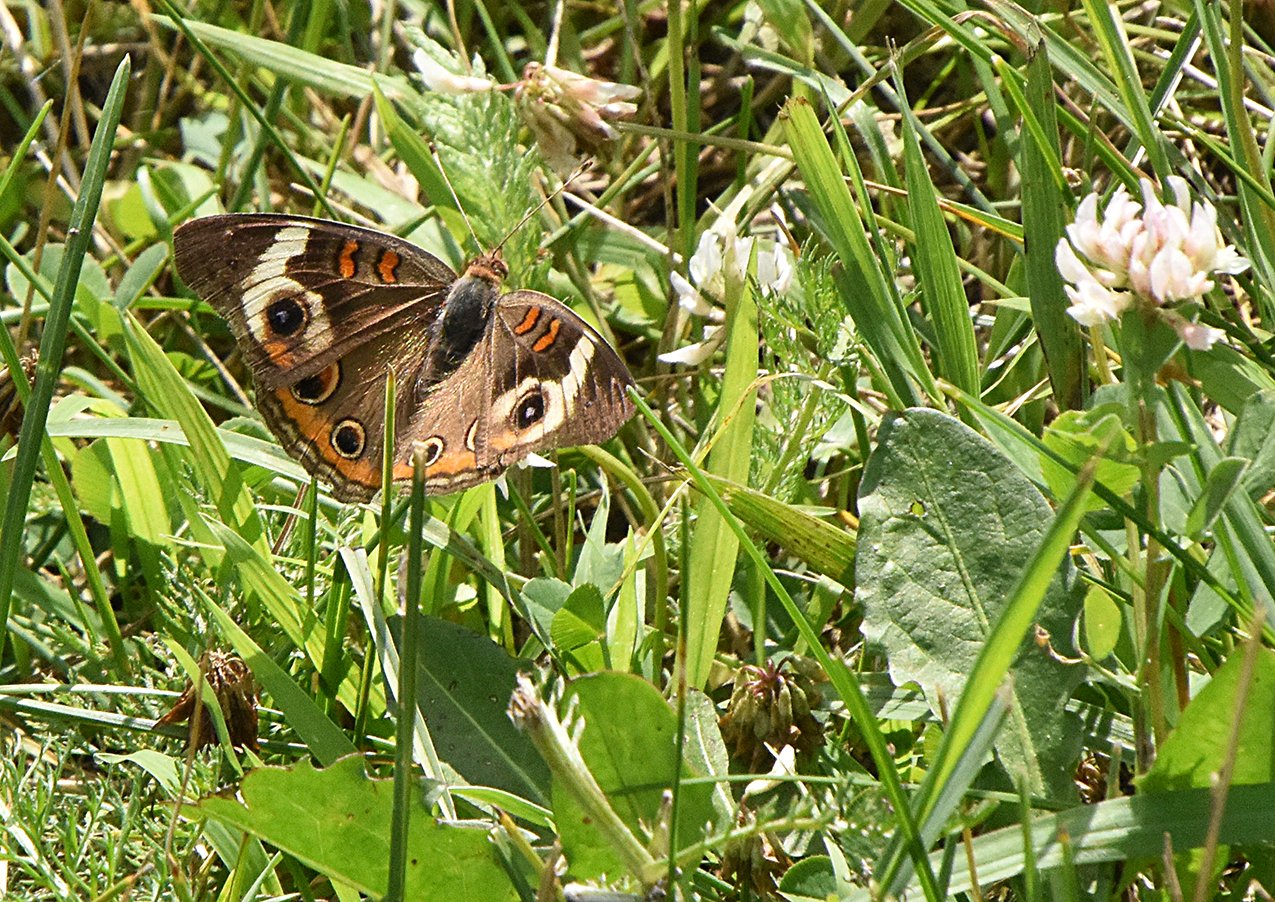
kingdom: Animalia
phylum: Arthropoda
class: Insecta
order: Lepidoptera
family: Nymphalidae
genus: Junonia
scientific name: Junonia coenia
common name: Common Buckeye
